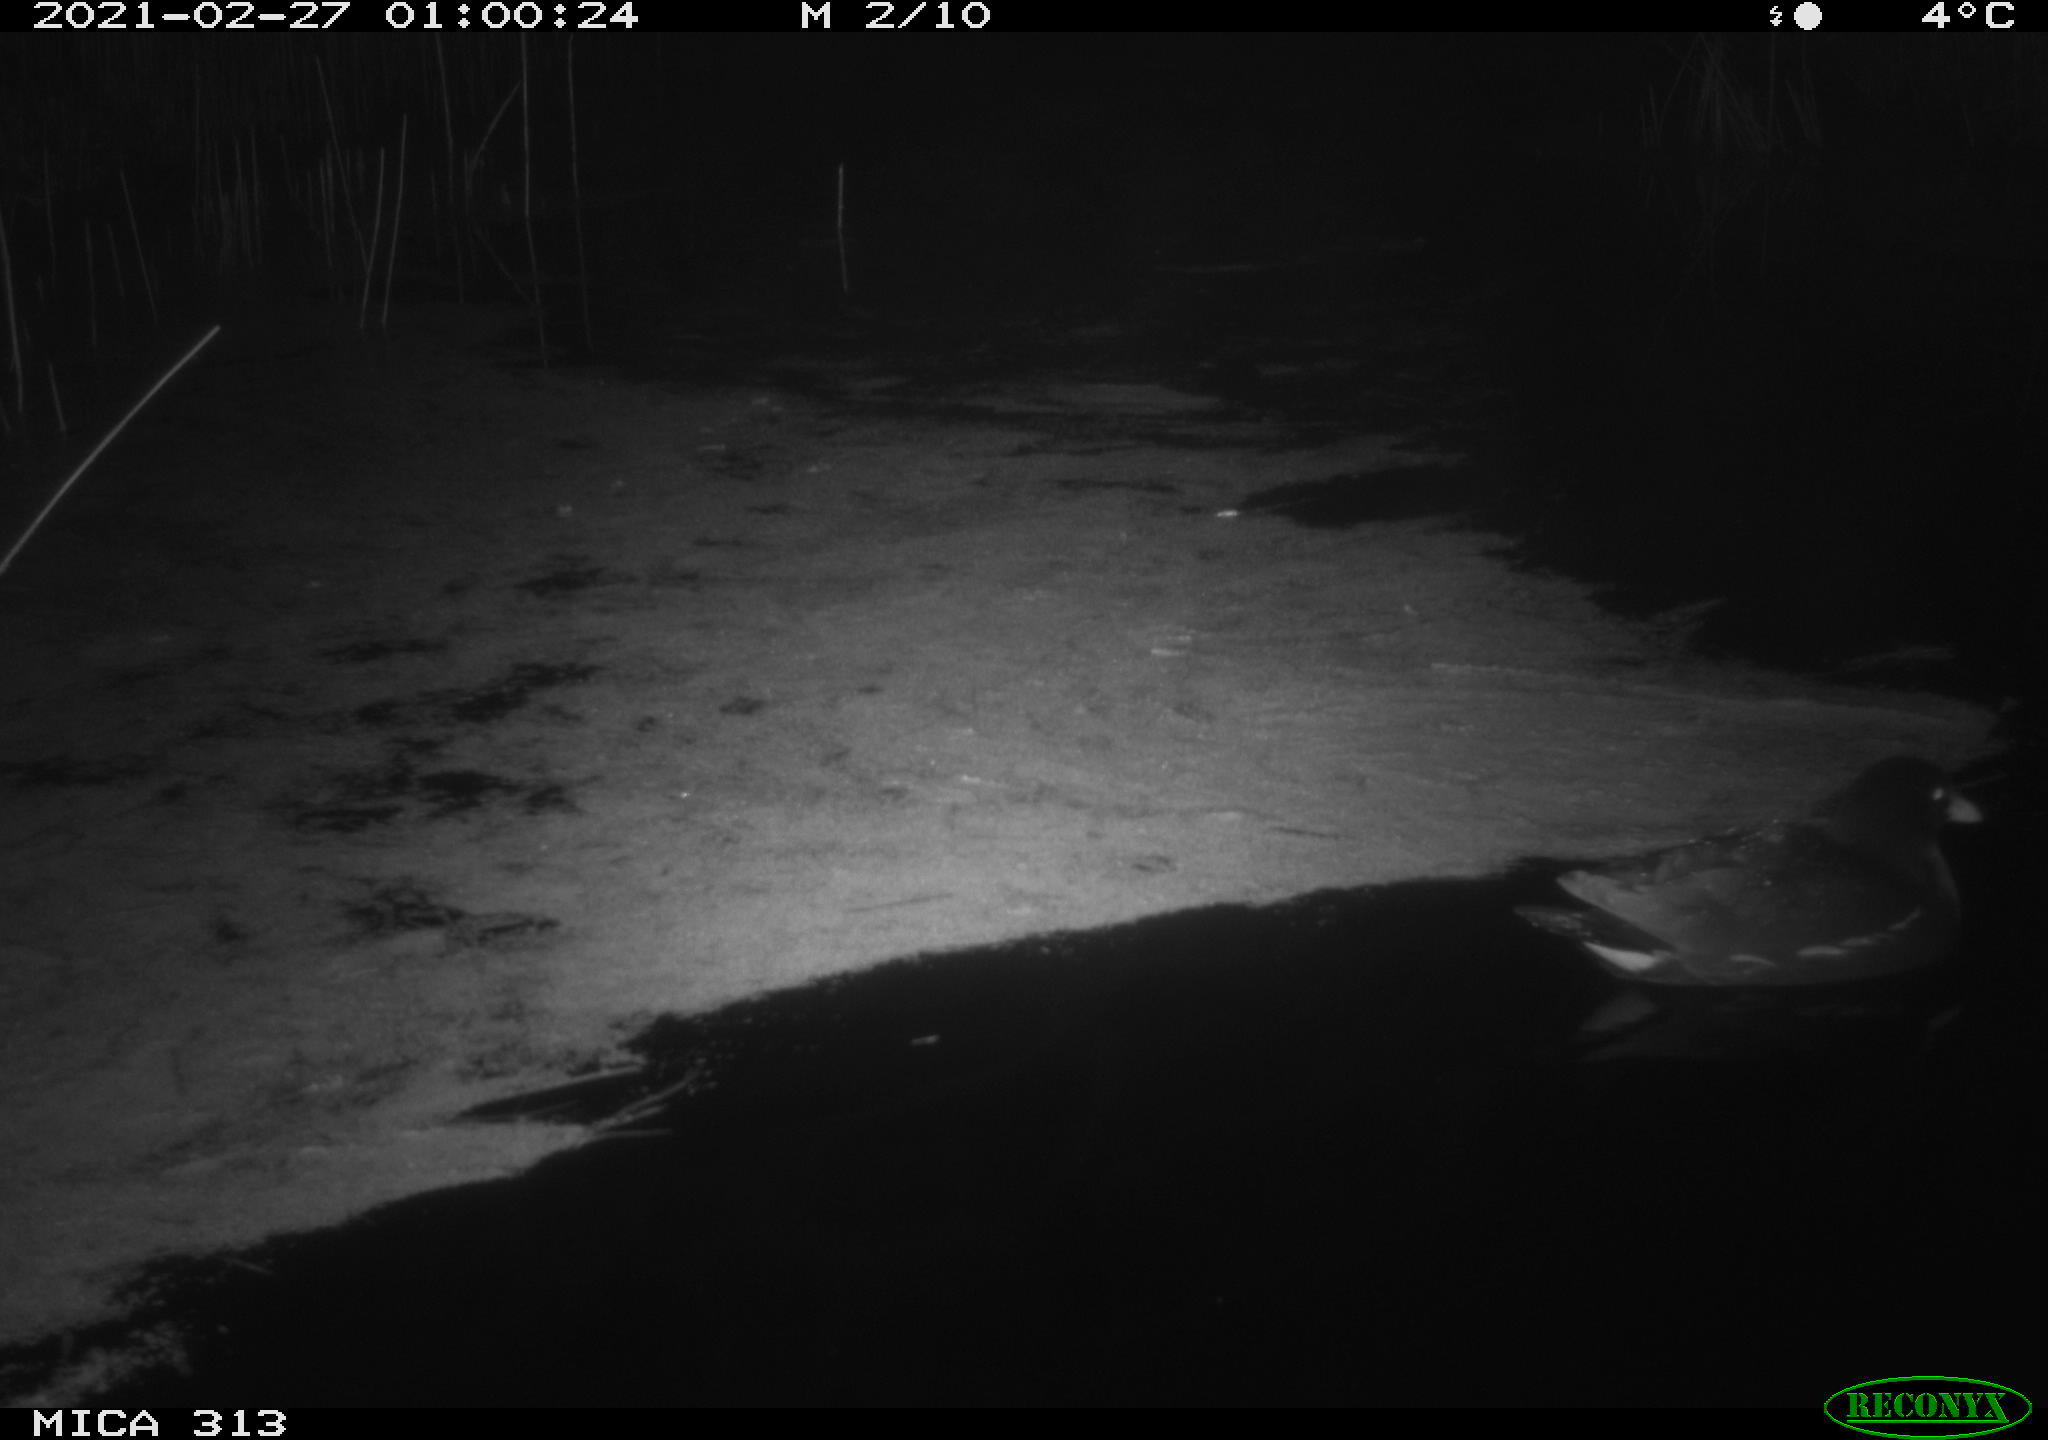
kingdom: Animalia
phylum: Chordata
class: Aves
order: Gruiformes
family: Rallidae
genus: Gallinula
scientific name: Gallinula chloropus
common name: Common moorhen
